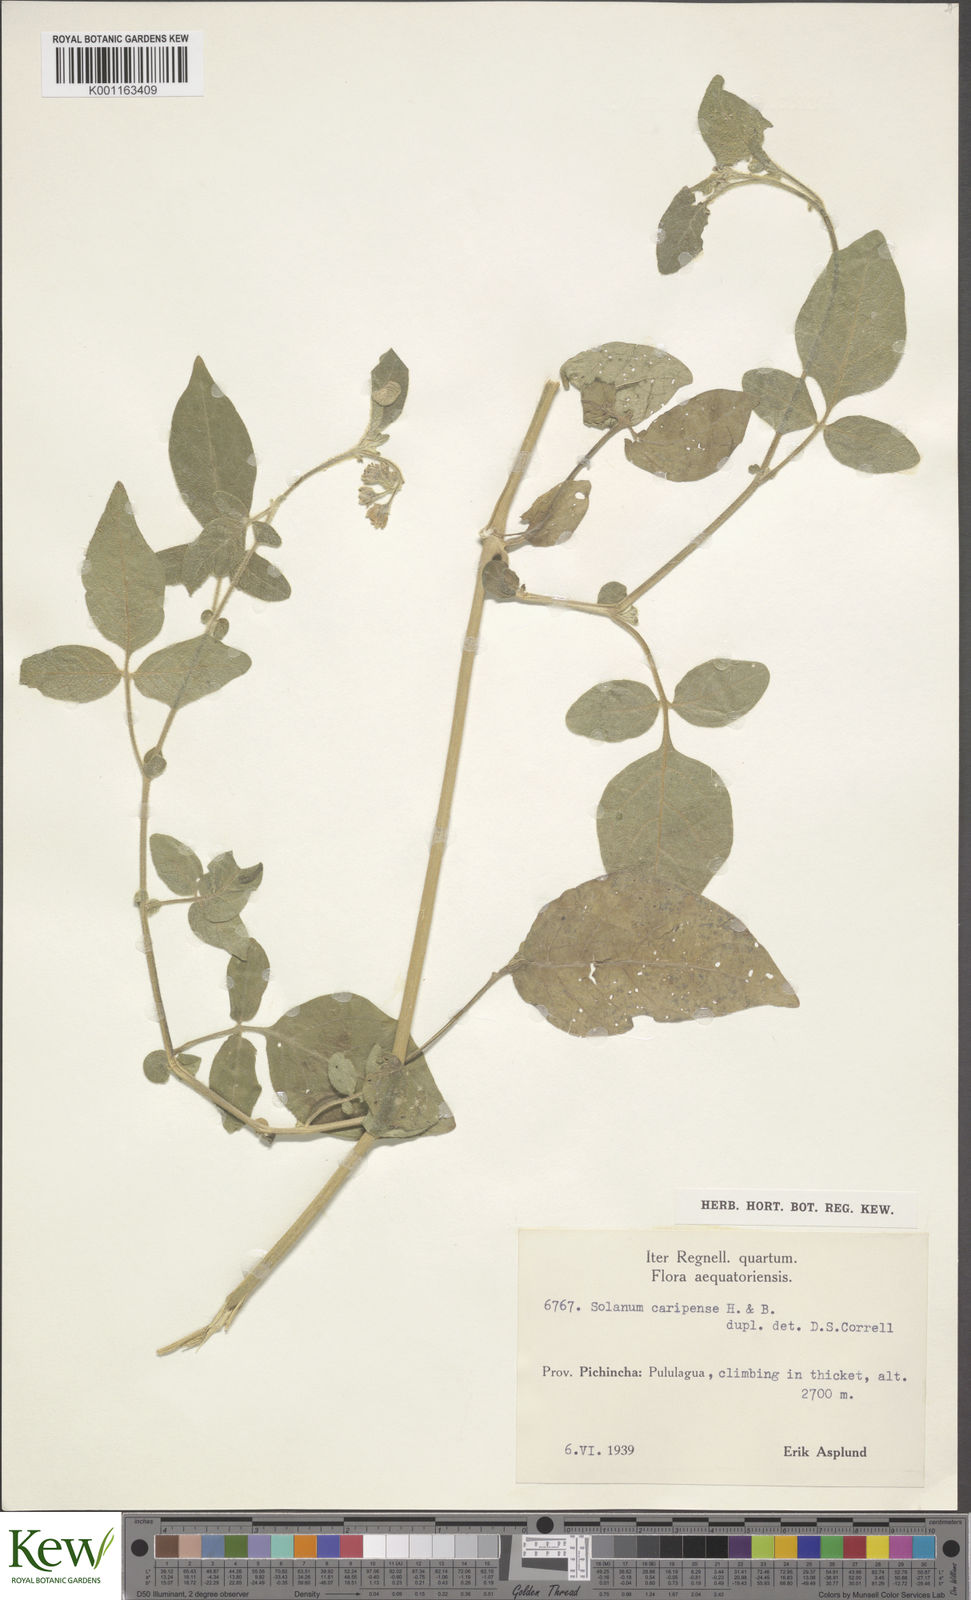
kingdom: Plantae
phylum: Tracheophyta
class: Magnoliopsida
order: Solanales
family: Solanaceae
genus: Solanum
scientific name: Solanum caripense
